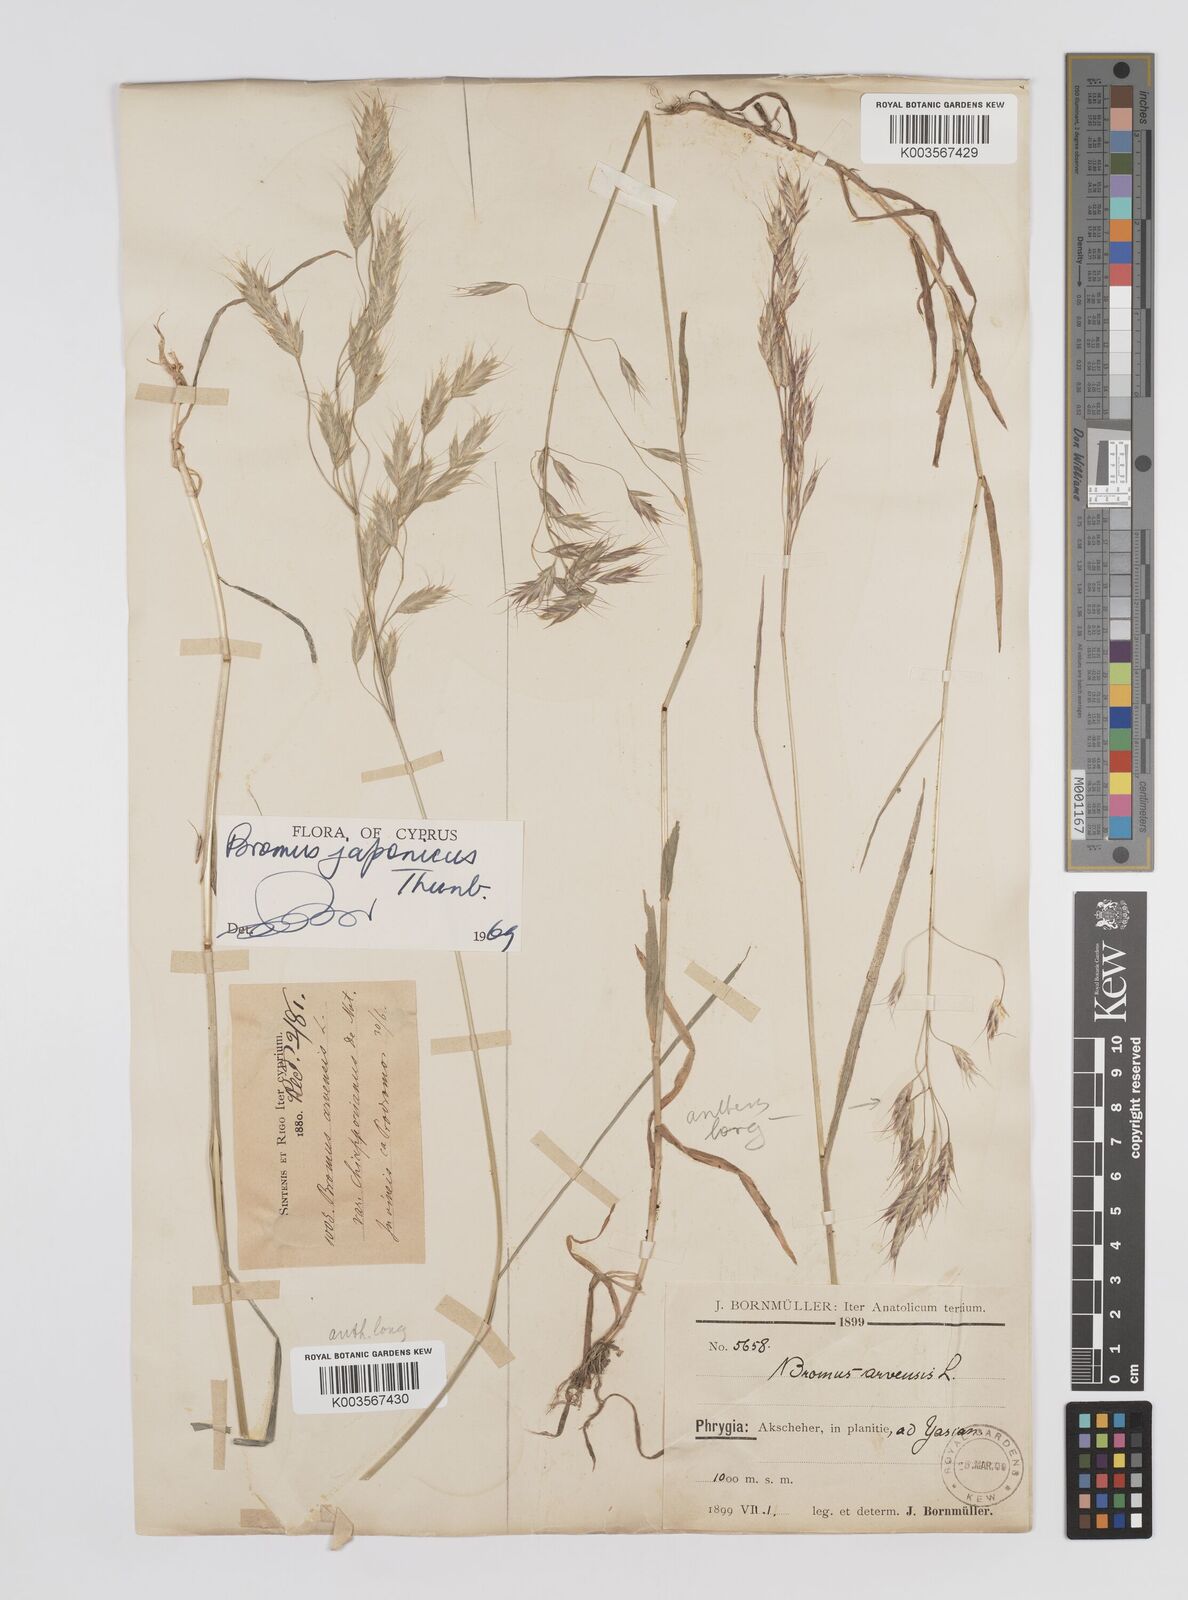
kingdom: Plantae
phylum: Tracheophyta
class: Liliopsida
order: Poales
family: Poaceae
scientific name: Poaceae
